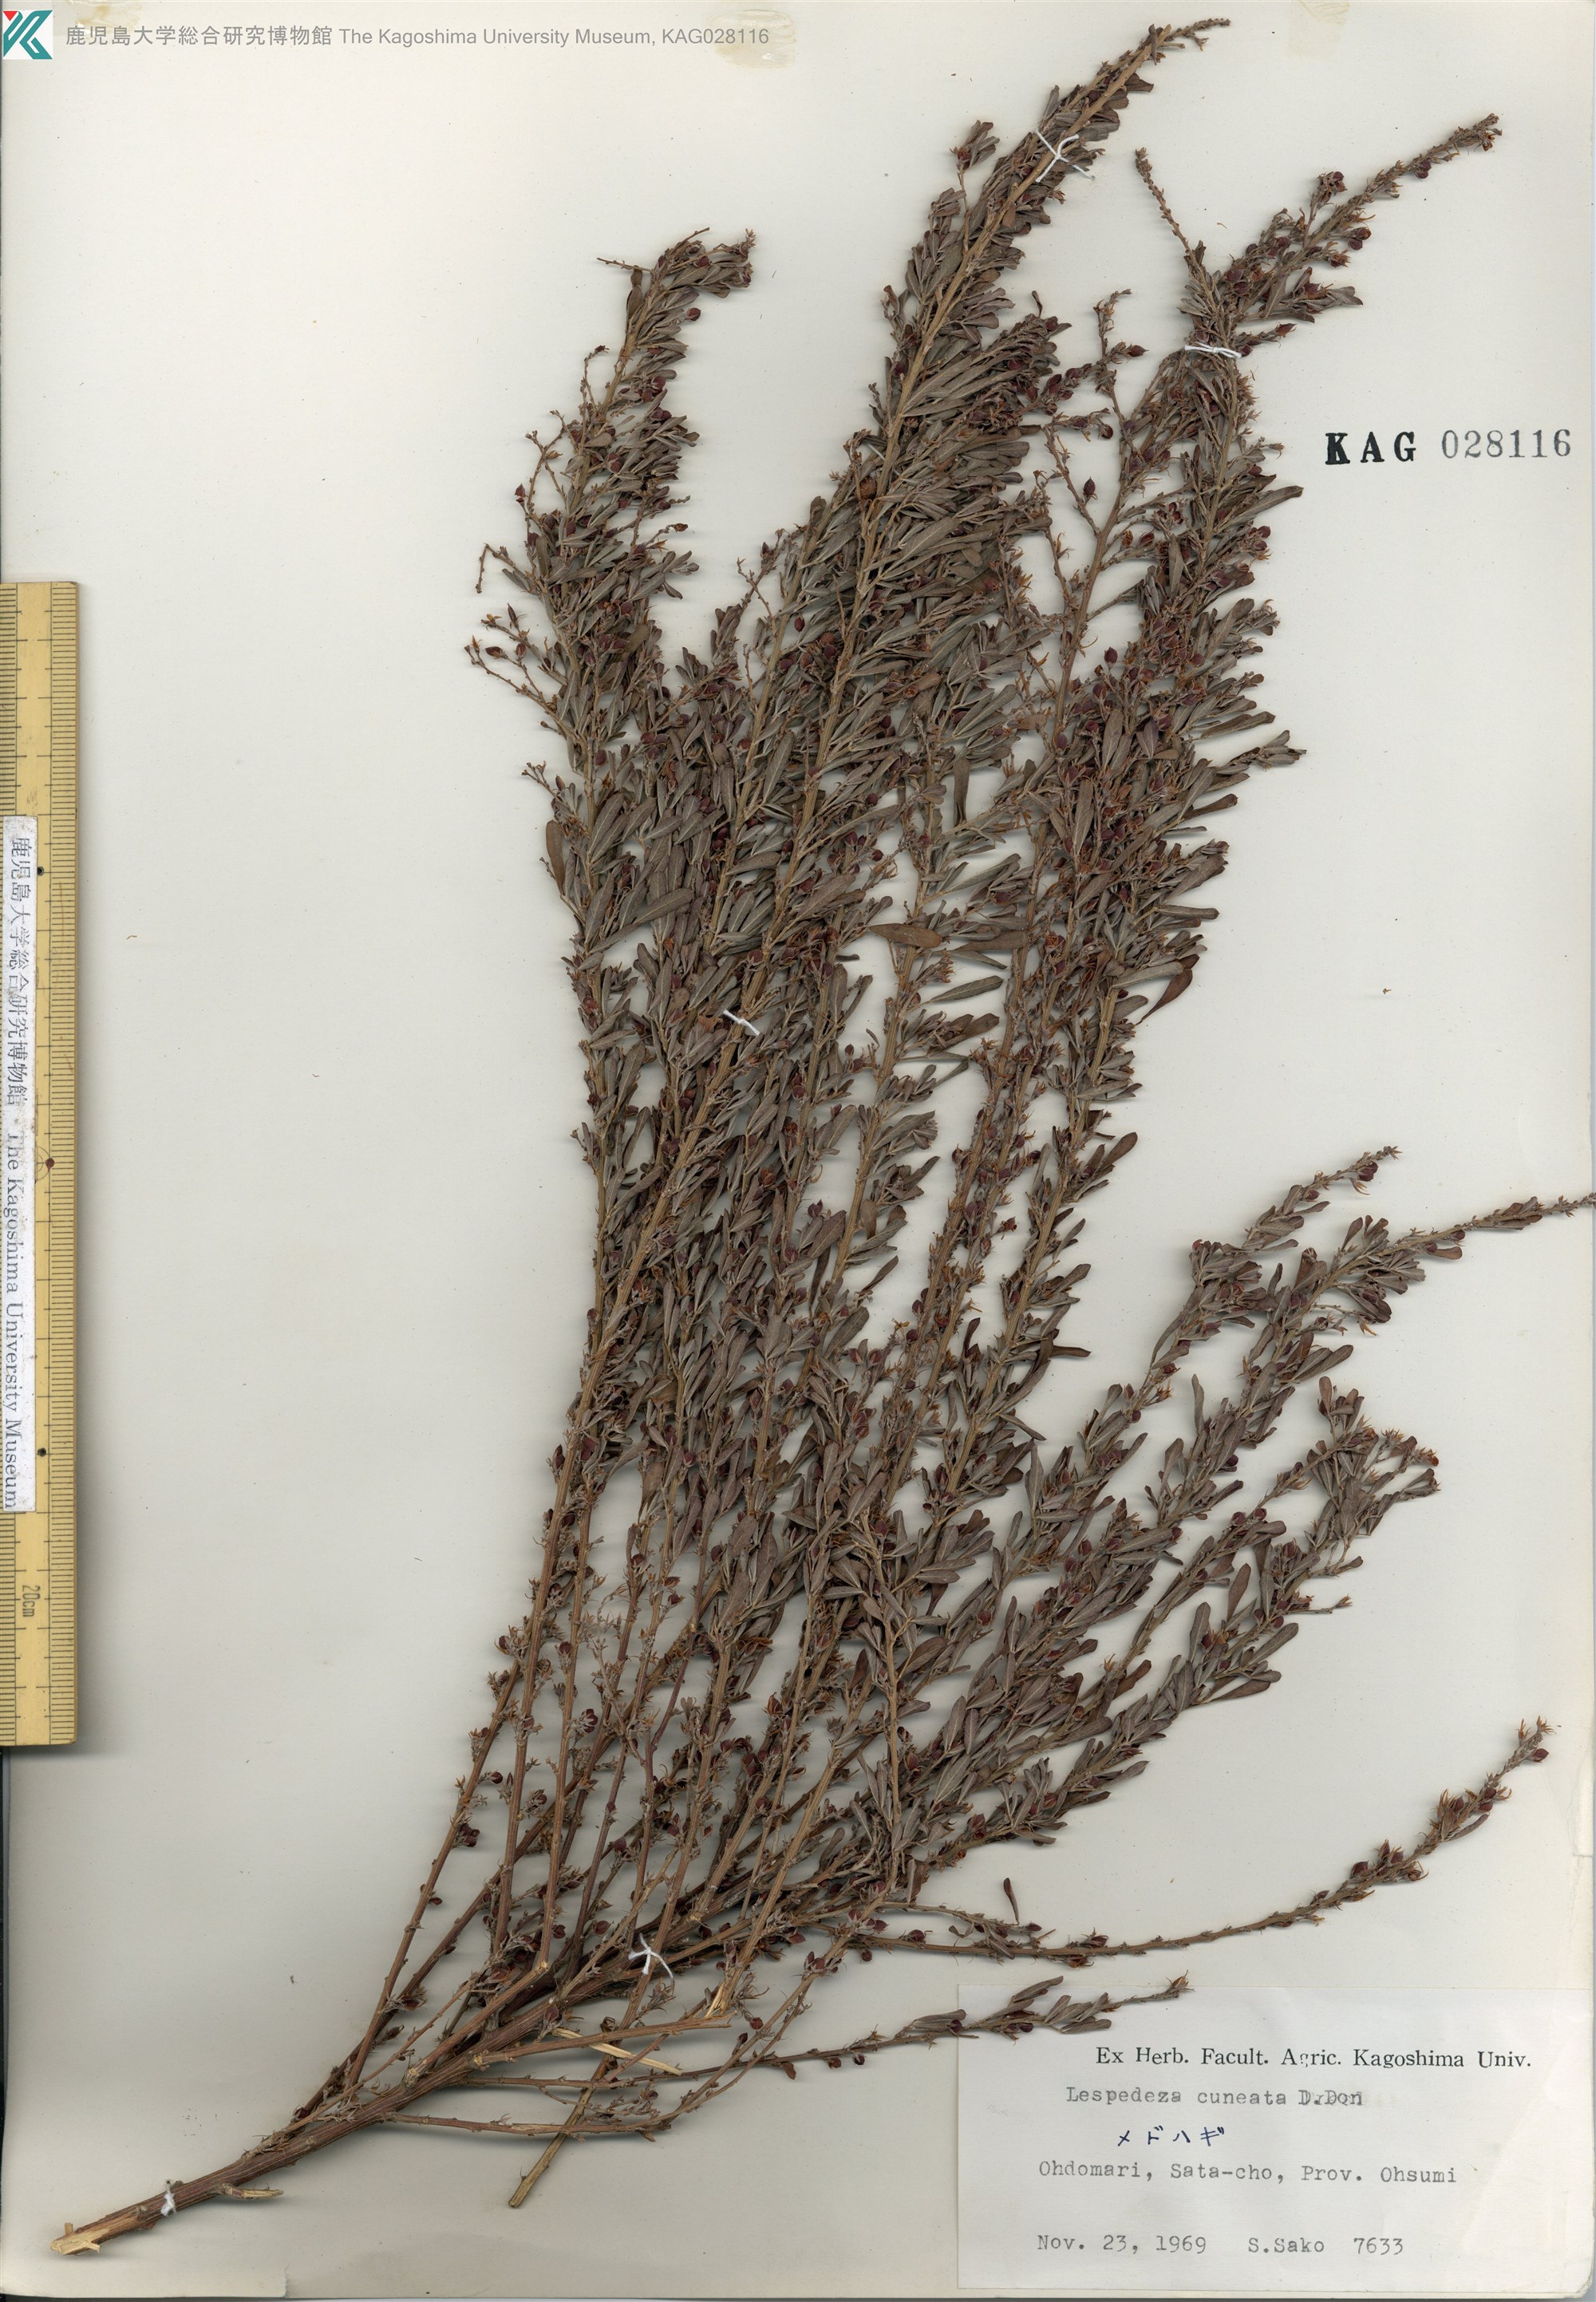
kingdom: Plantae
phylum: Tracheophyta
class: Magnoliopsida
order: Fabales
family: Fabaceae
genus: Lespedeza
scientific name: Lespedeza cuneata
